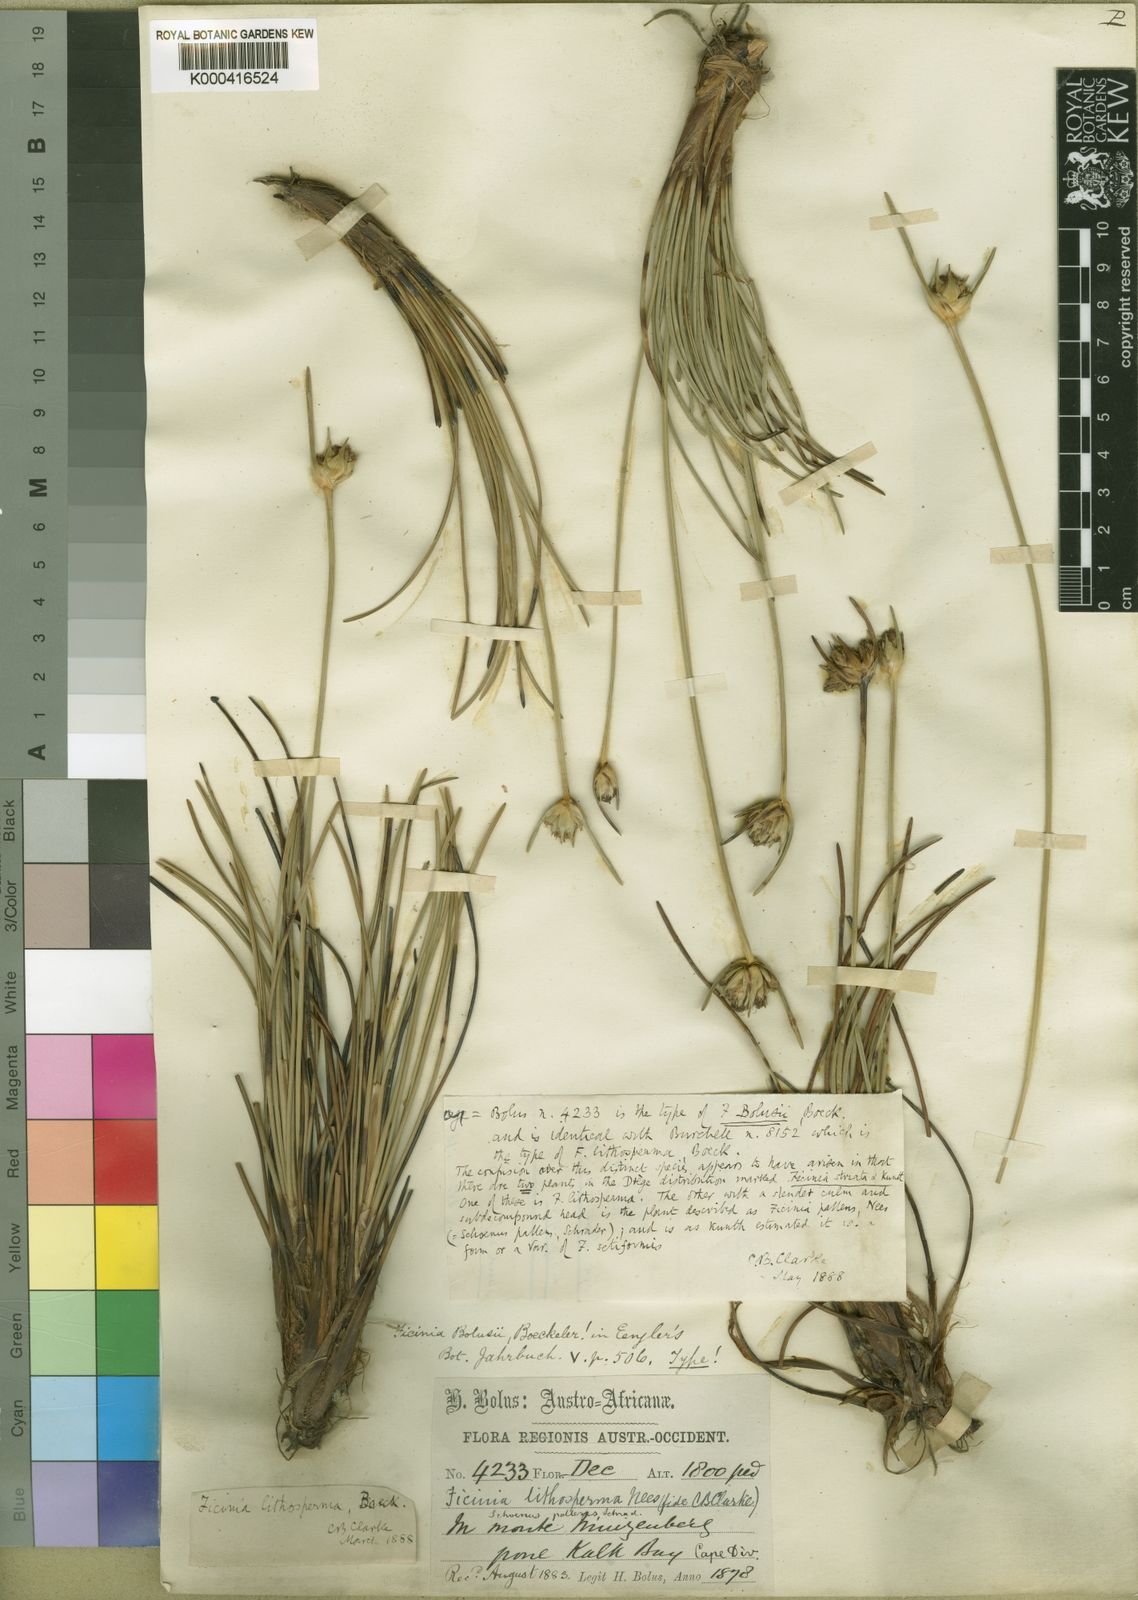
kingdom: Plantae
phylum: Tracheophyta
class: Liliopsida
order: Poales
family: Cyperaceae
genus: Ficinia
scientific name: Ficinia pallens
